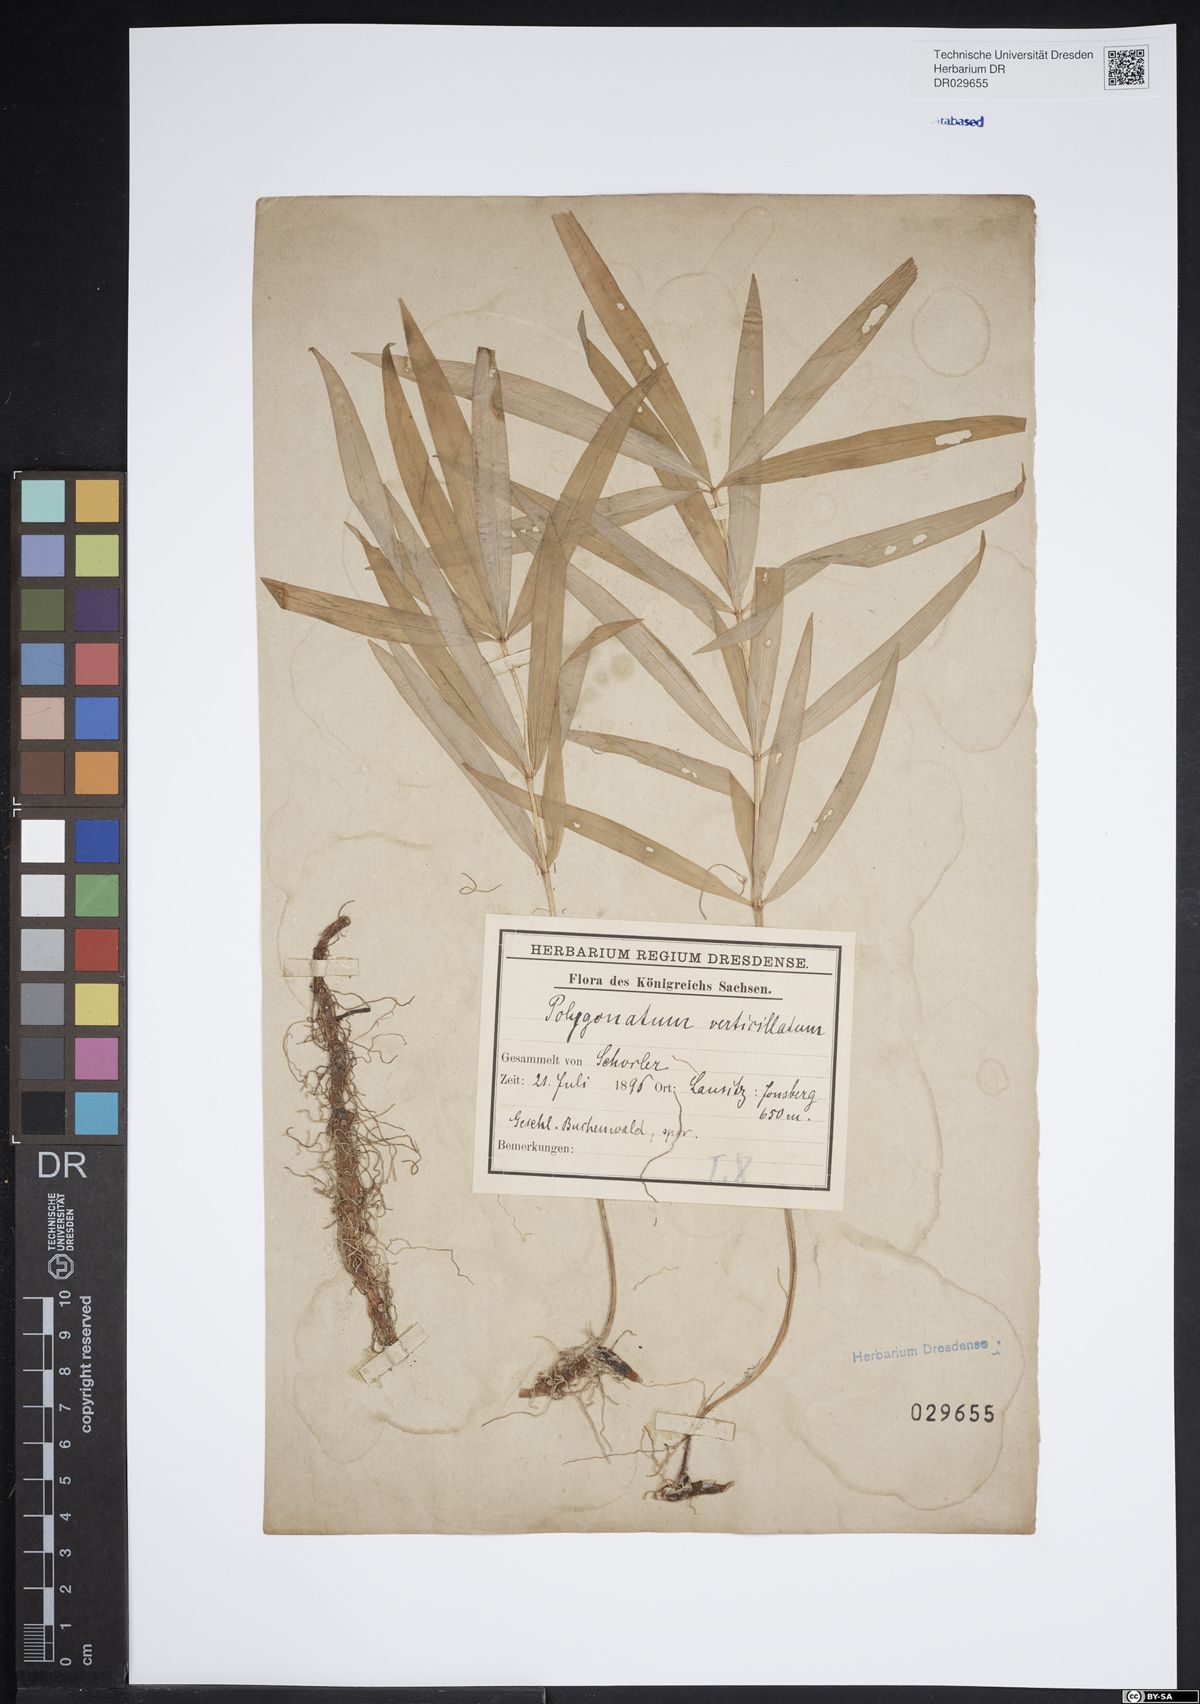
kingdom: Plantae
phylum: Tracheophyta
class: Liliopsida
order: Asparagales
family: Asparagaceae
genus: Polygonatum
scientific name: Polygonatum verticillatum
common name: Whorled solomon's-seal
